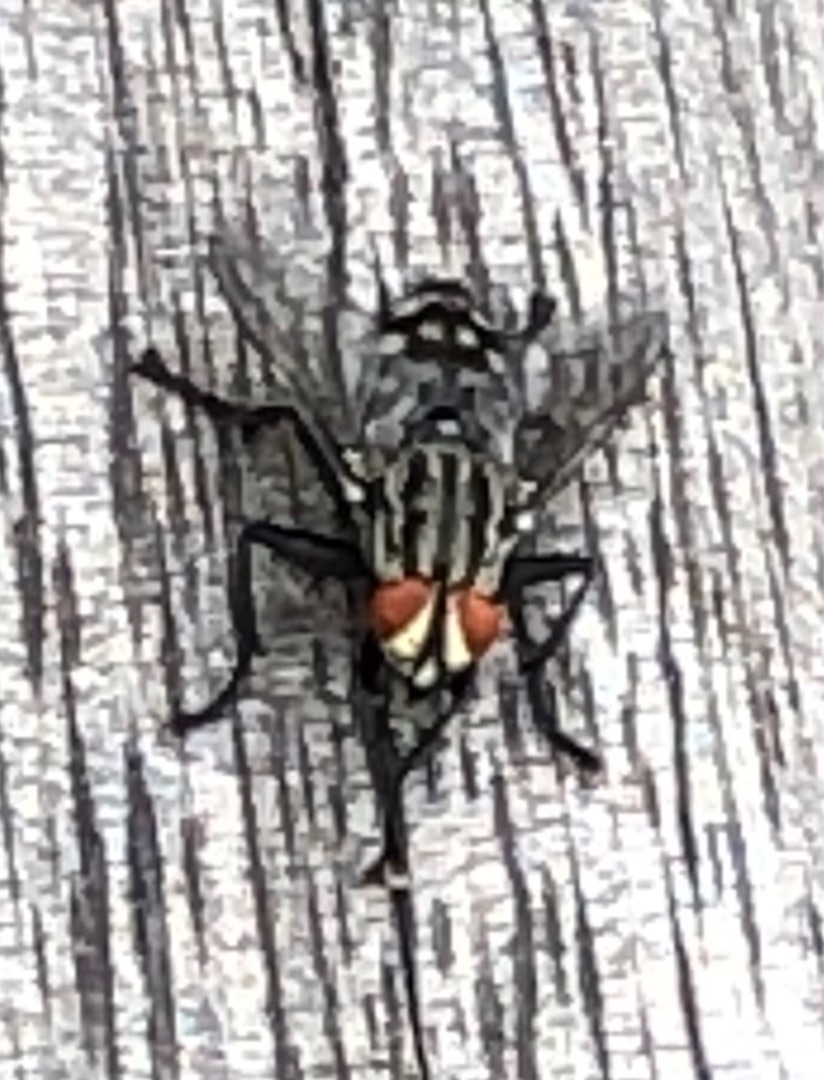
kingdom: Animalia
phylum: Arthropoda
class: Insecta
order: Diptera
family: Sarcophagidae
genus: Sarcophaga
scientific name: Sarcophaga
